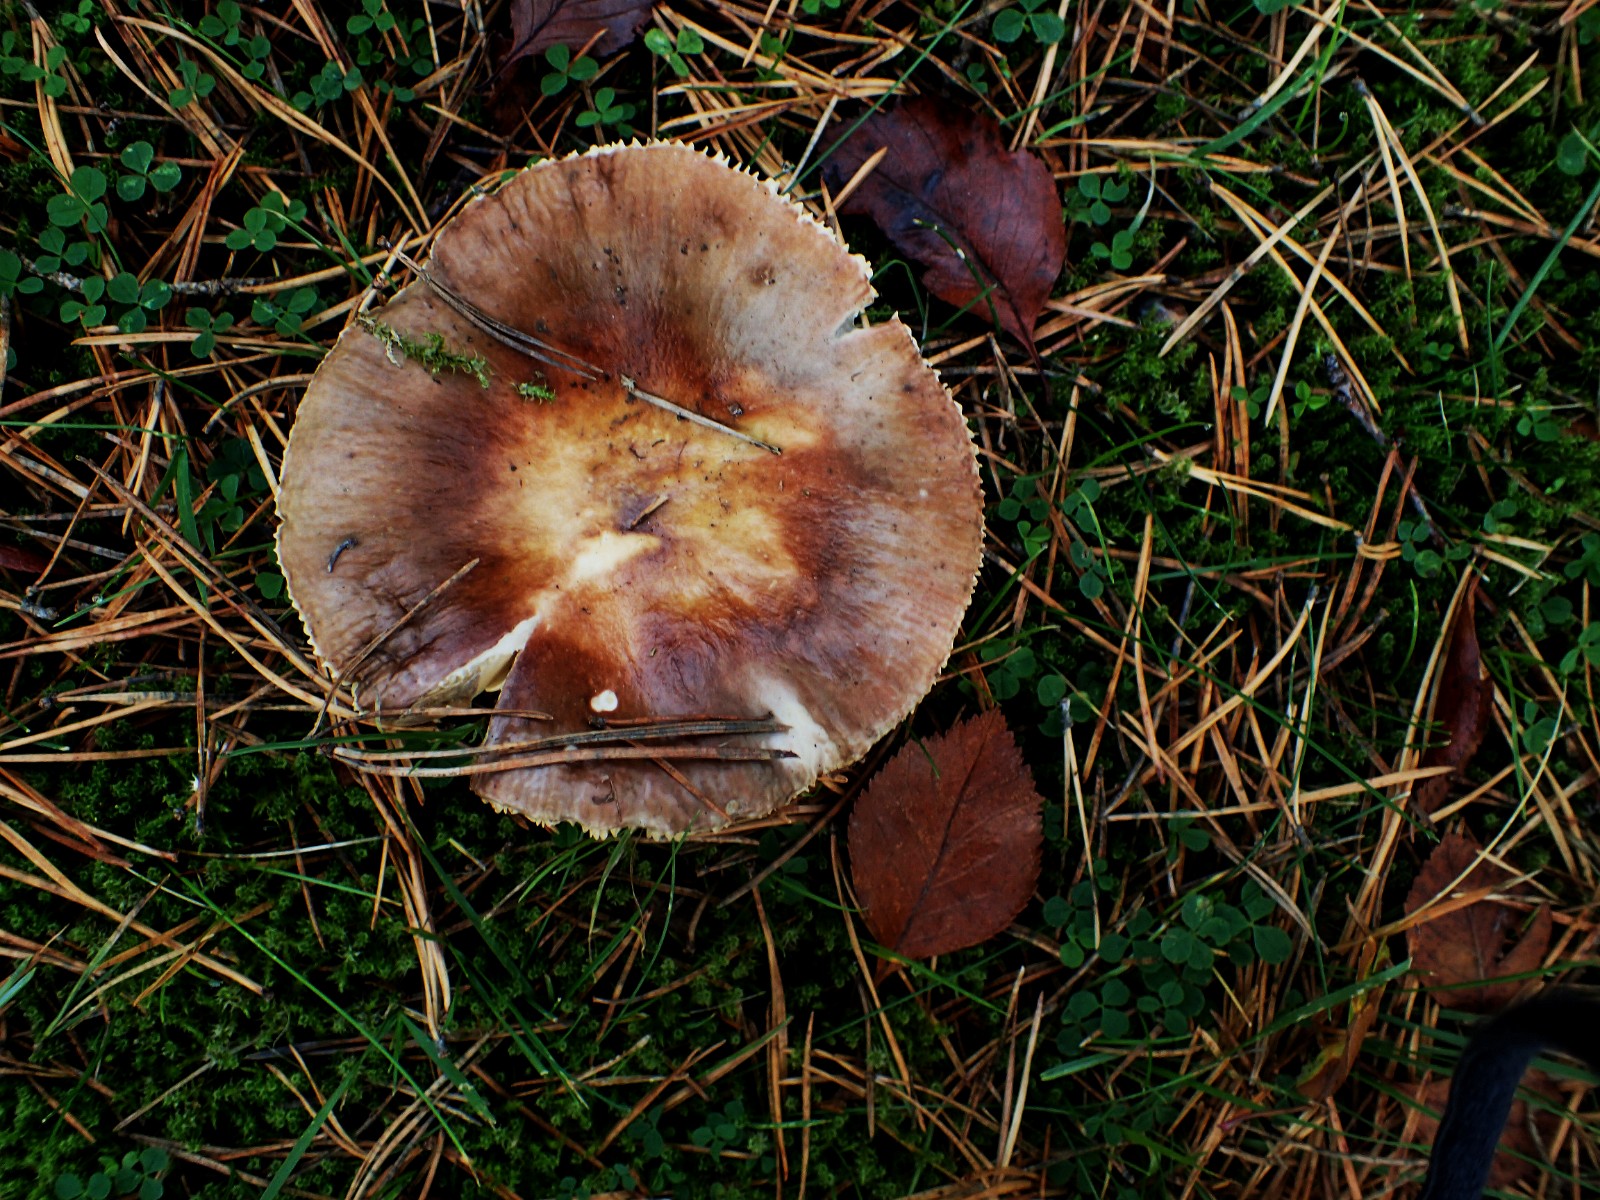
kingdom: Fungi
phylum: Basidiomycota
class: Agaricomycetes
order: Russulales
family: Russulaceae
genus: Russula
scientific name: Russula integra
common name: mandel-skørhat
